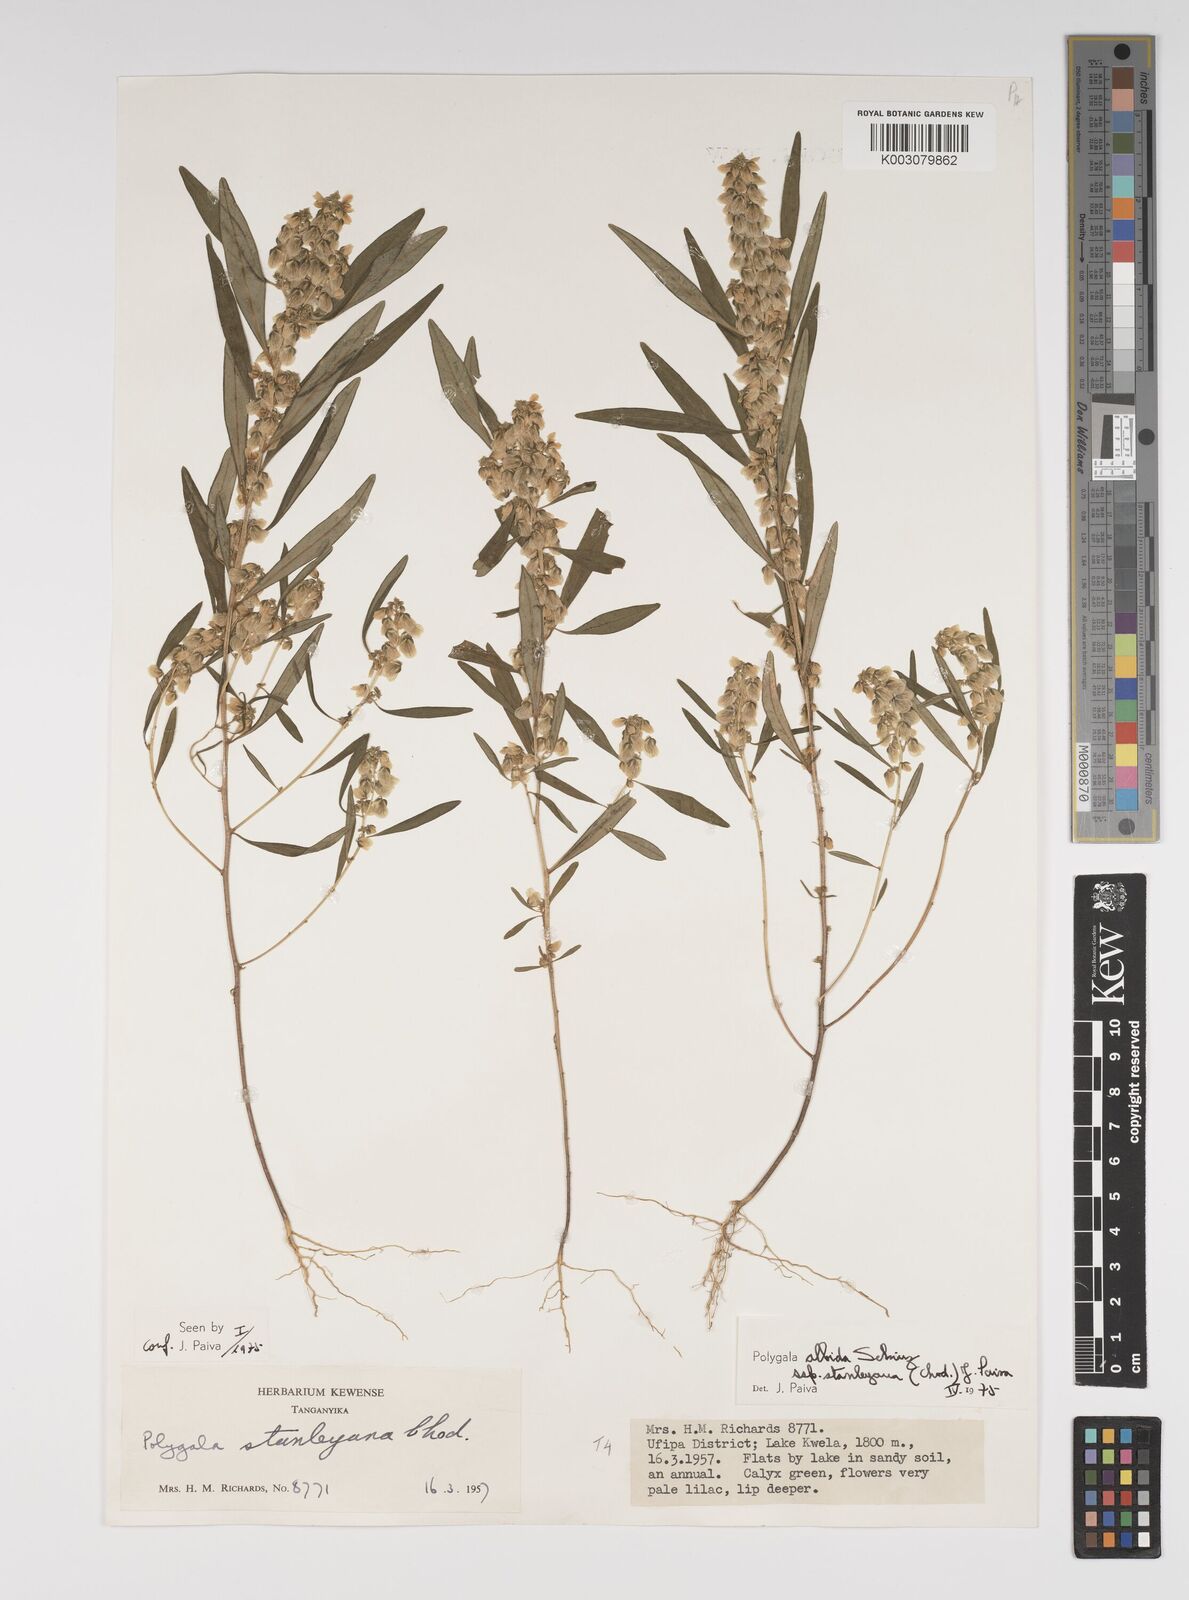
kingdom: Plantae
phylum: Tracheophyta
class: Magnoliopsida
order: Fabales
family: Polygalaceae
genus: Polygala
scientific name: Polygala albida
